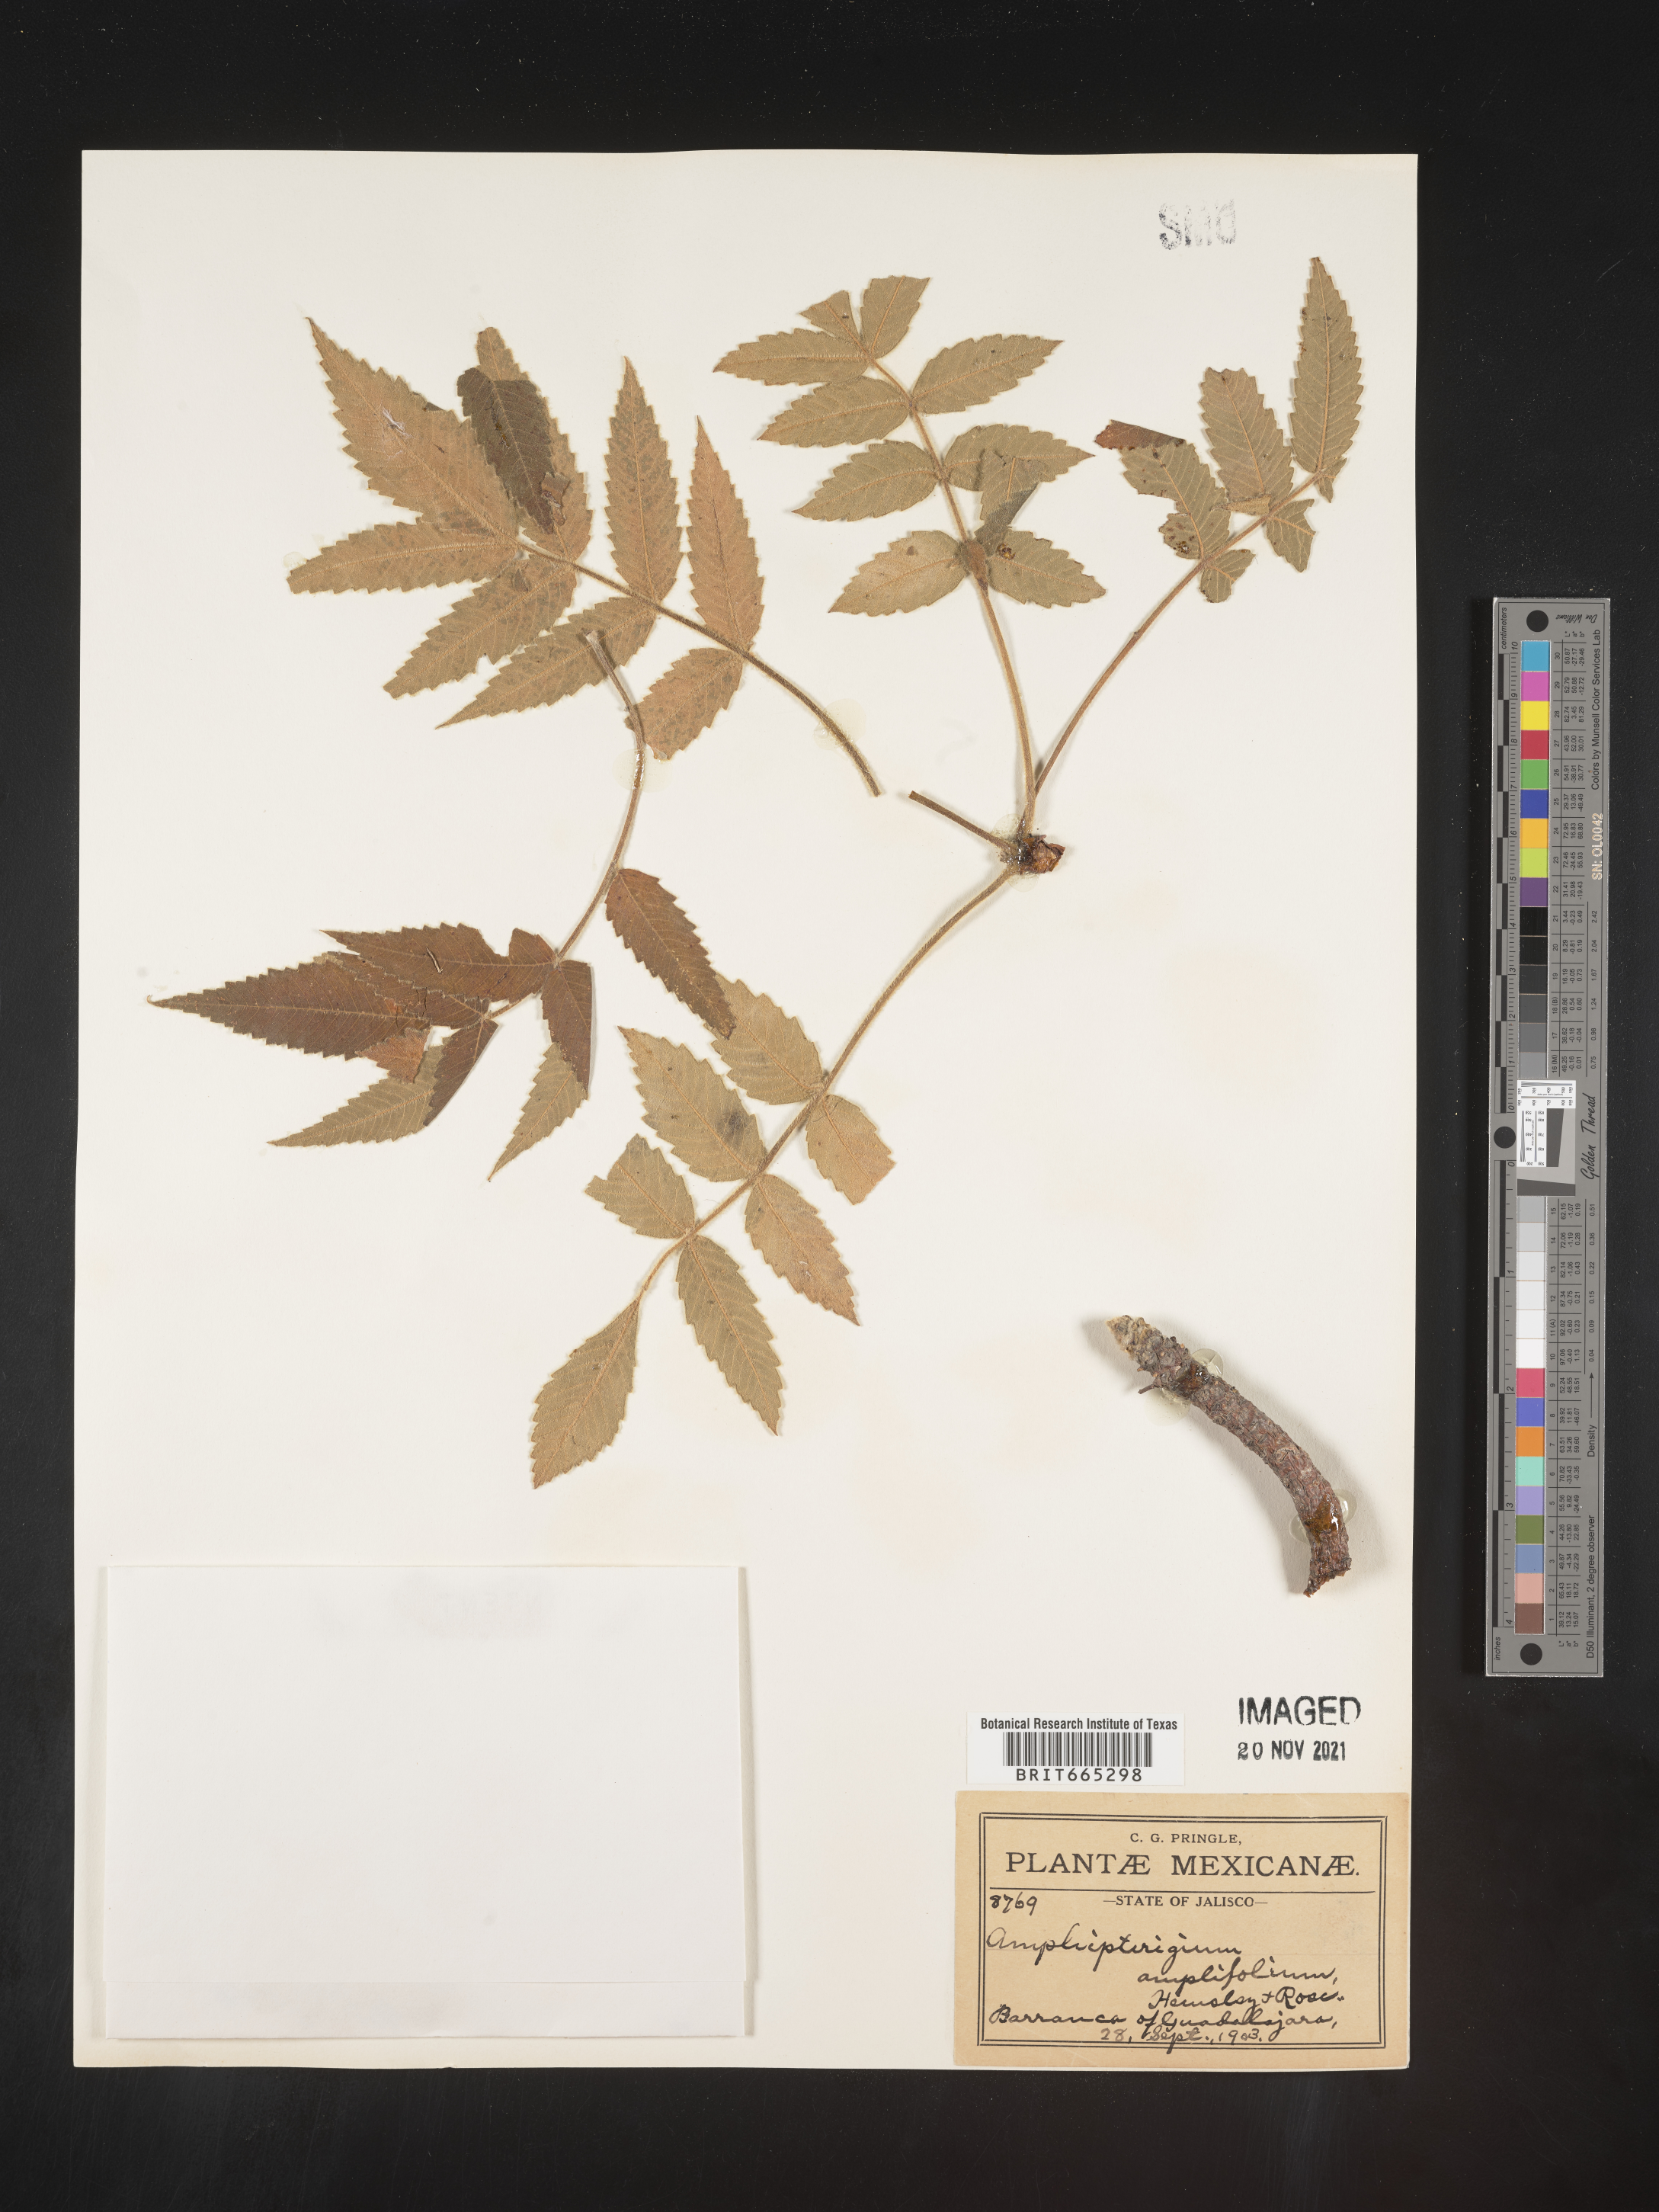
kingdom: Plantae
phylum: Tracheophyta
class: Magnoliopsida
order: Sapindales
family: Anacardiaceae
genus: Amphipterygium
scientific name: Amphipterygium
